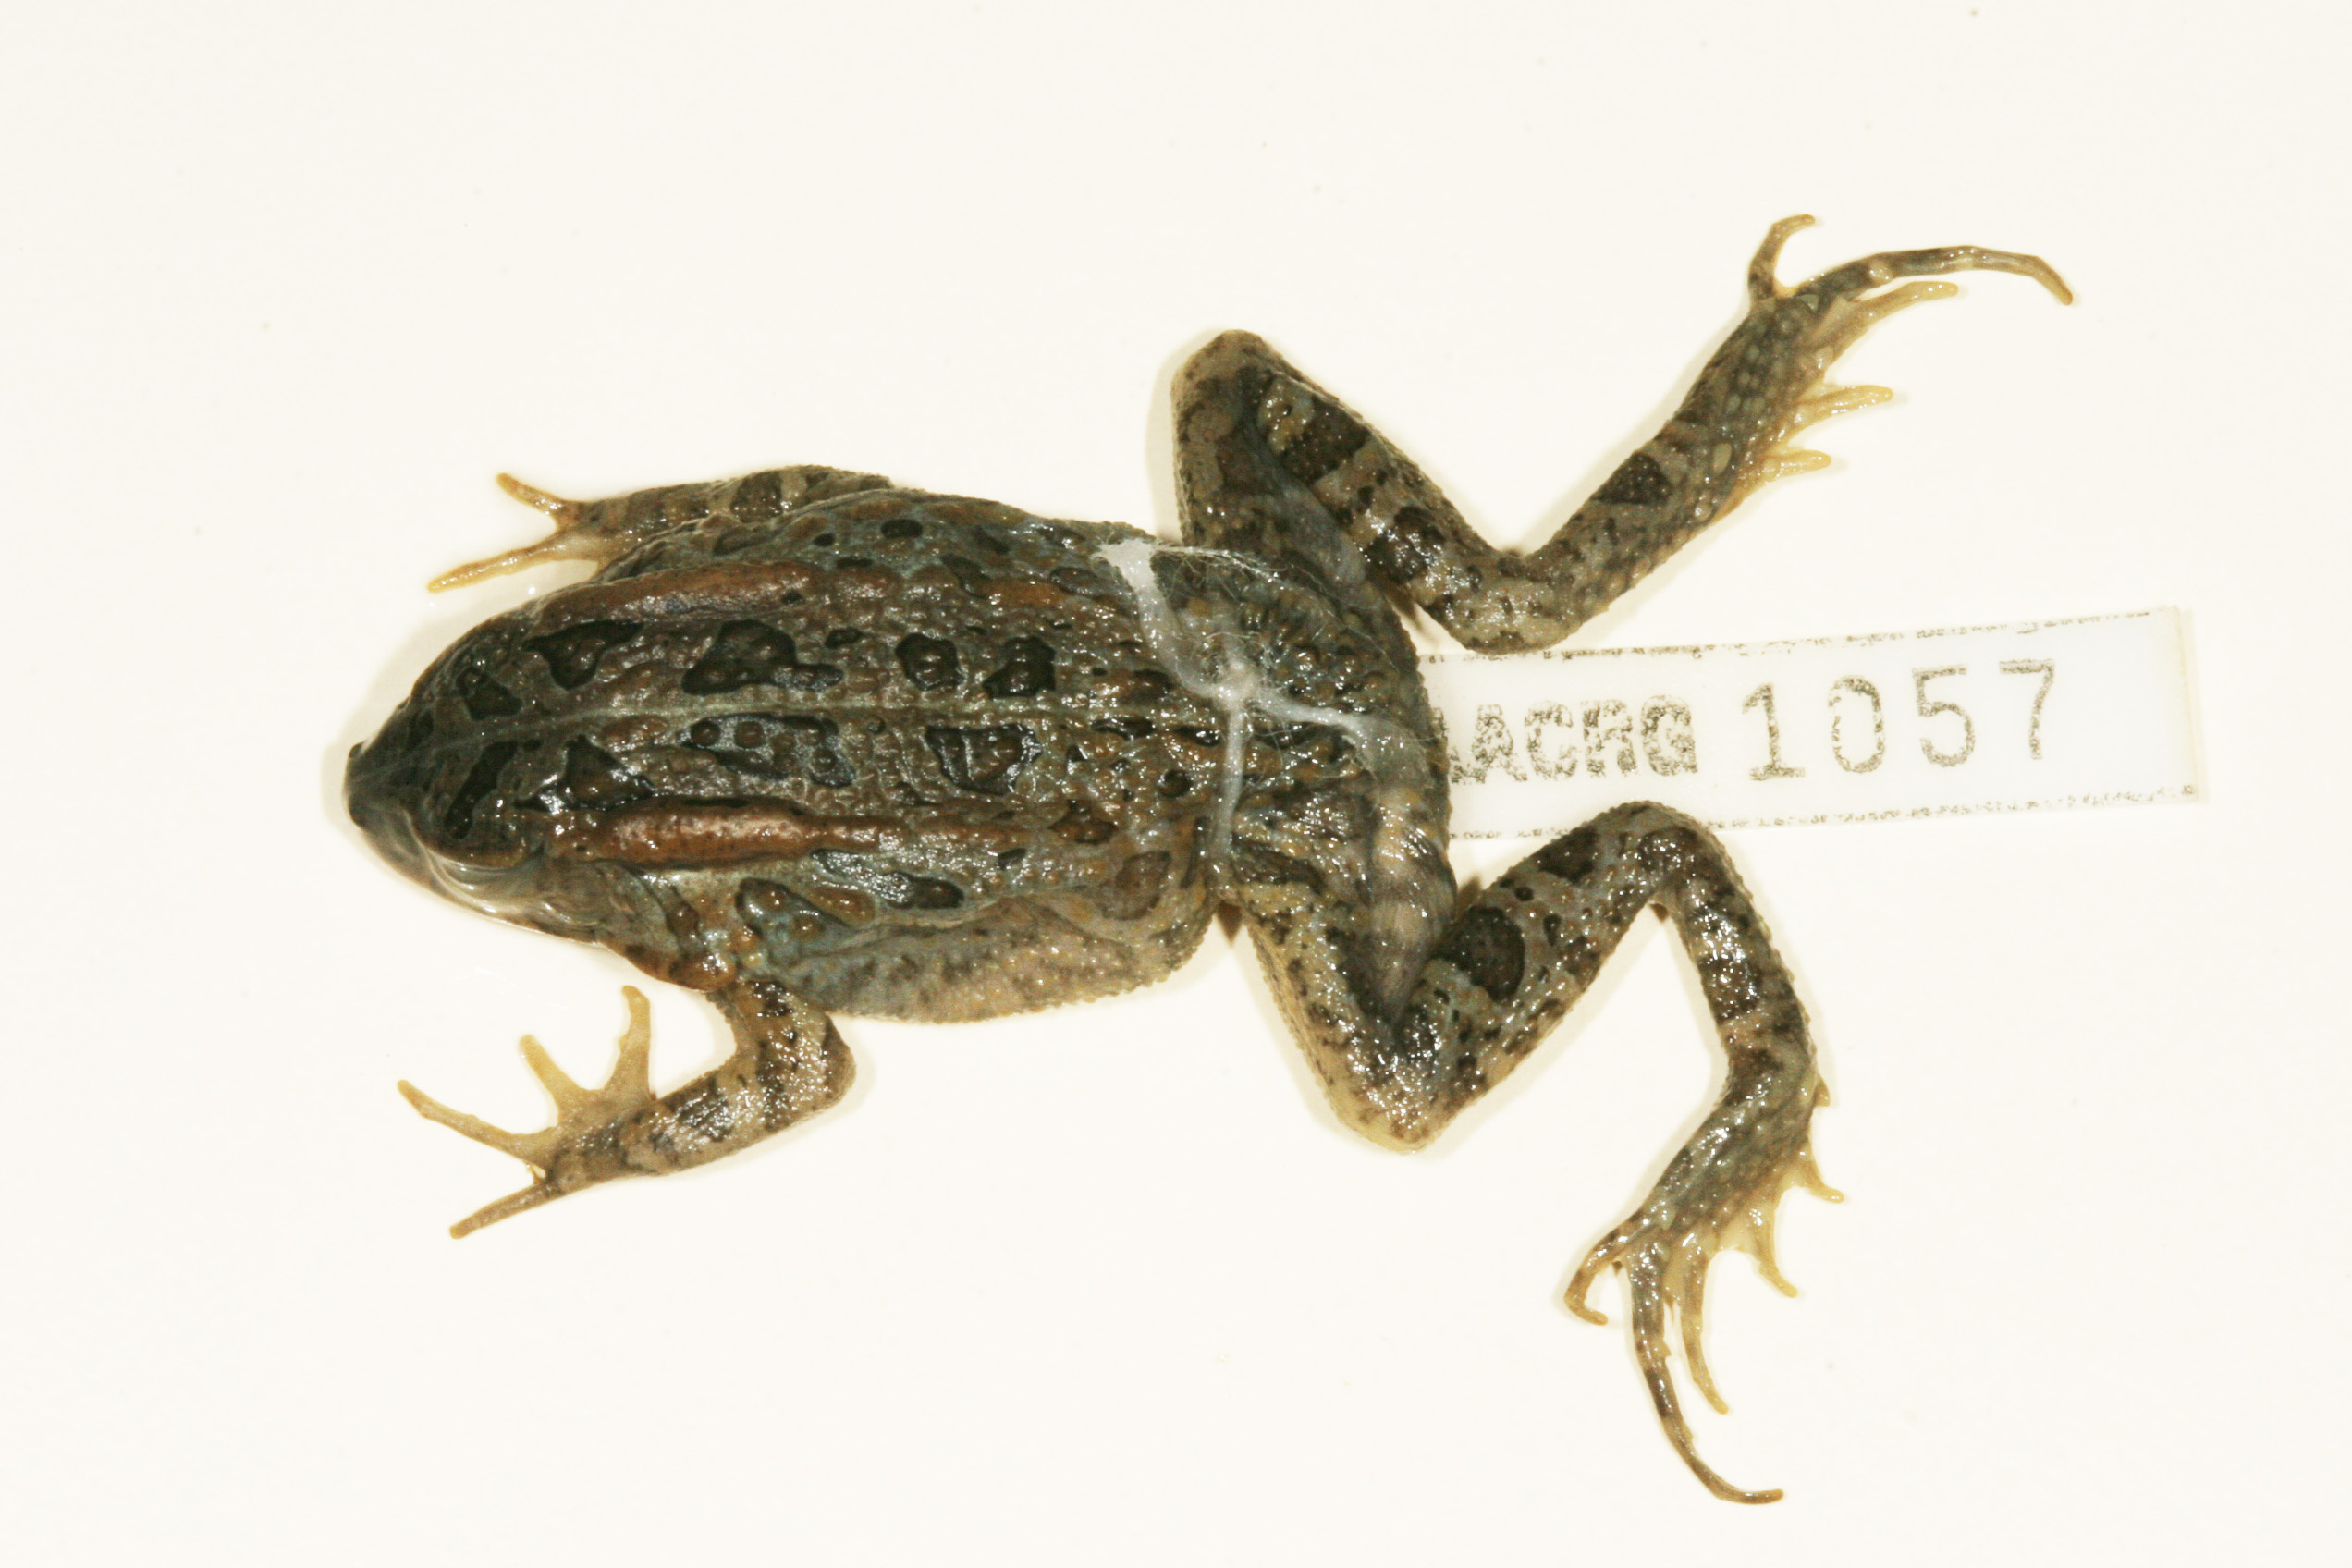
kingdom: Animalia
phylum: Chordata
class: Amphibia
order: Anura
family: Bufonidae
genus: Sclerophrys
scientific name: Sclerophrys lemairii
